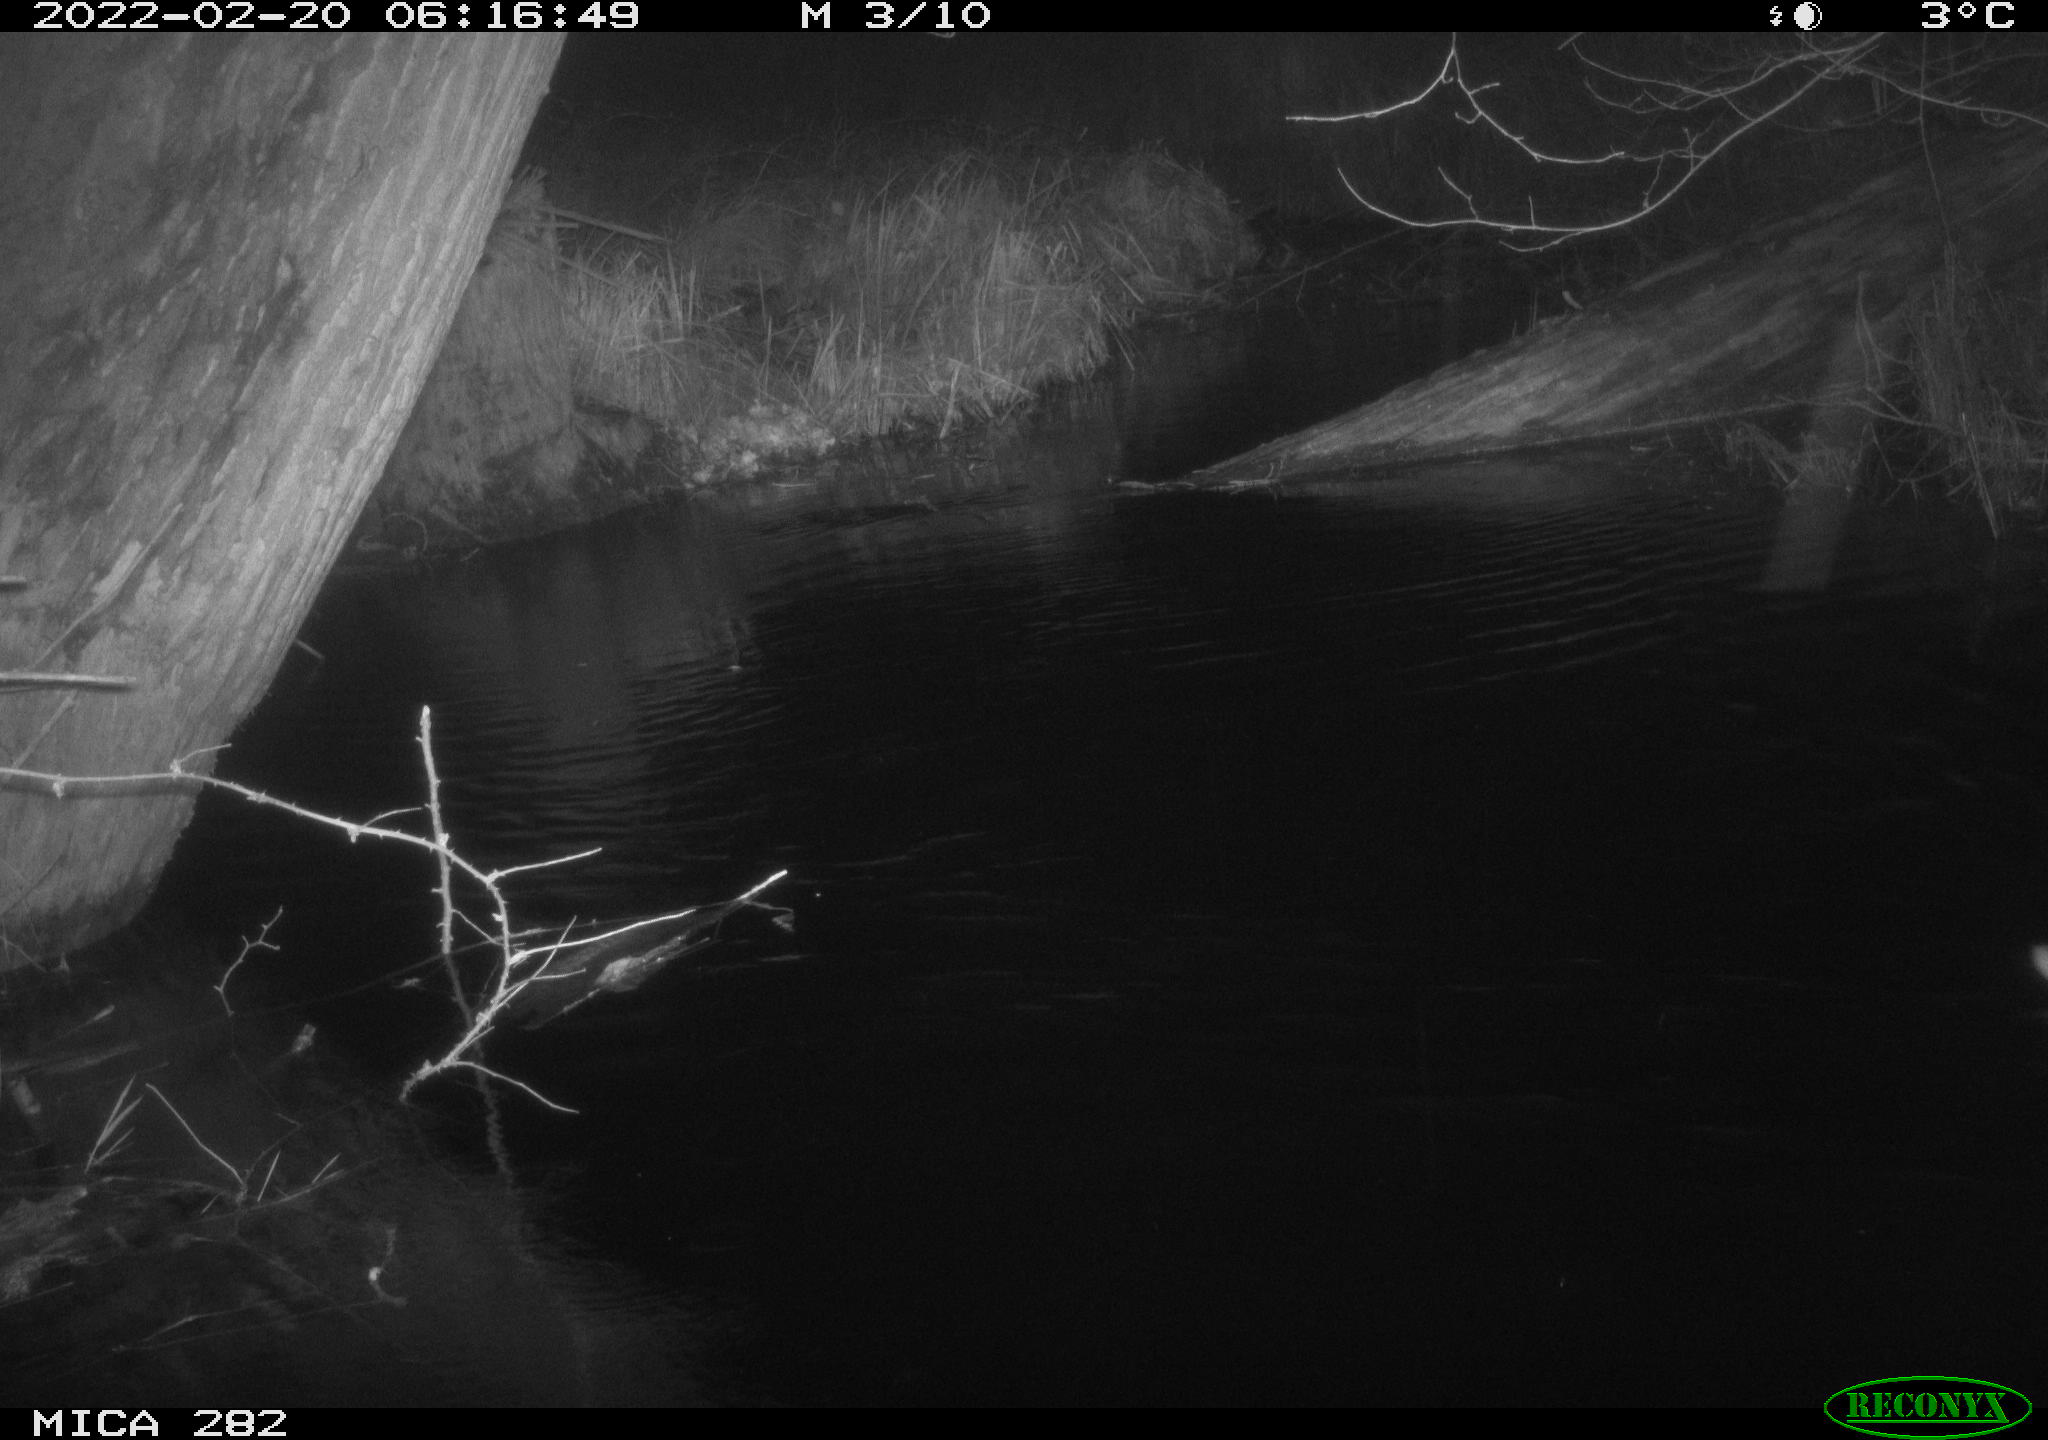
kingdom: Animalia
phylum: Chordata
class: Aves
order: Anseriformes
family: Anatidae
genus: Anas
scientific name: Anas platyrhynchos
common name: Mallard
